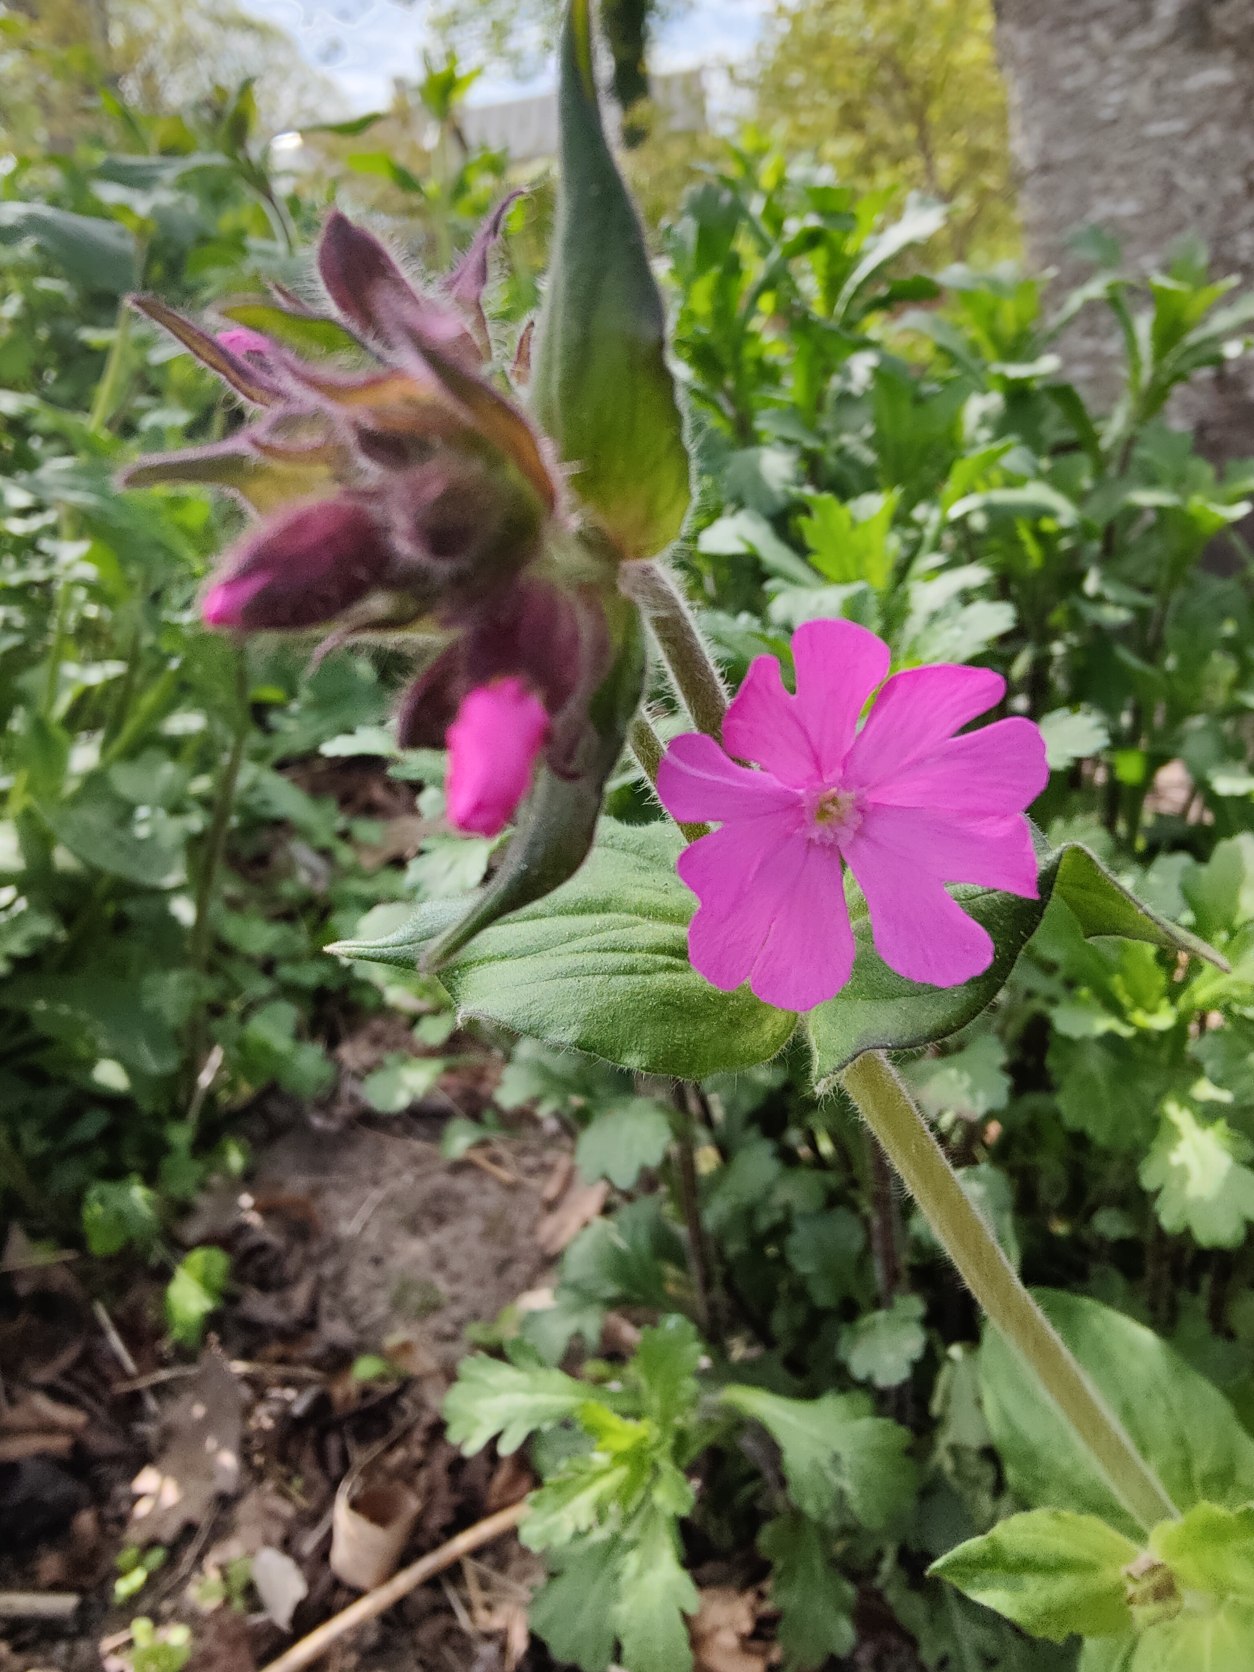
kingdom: Plantae
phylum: Tracheophyta
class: Magnoliopsida
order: Caryophyllales
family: Caryophyllaceae
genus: Silene
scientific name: Silene dioica
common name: Dagpragtstjerne
